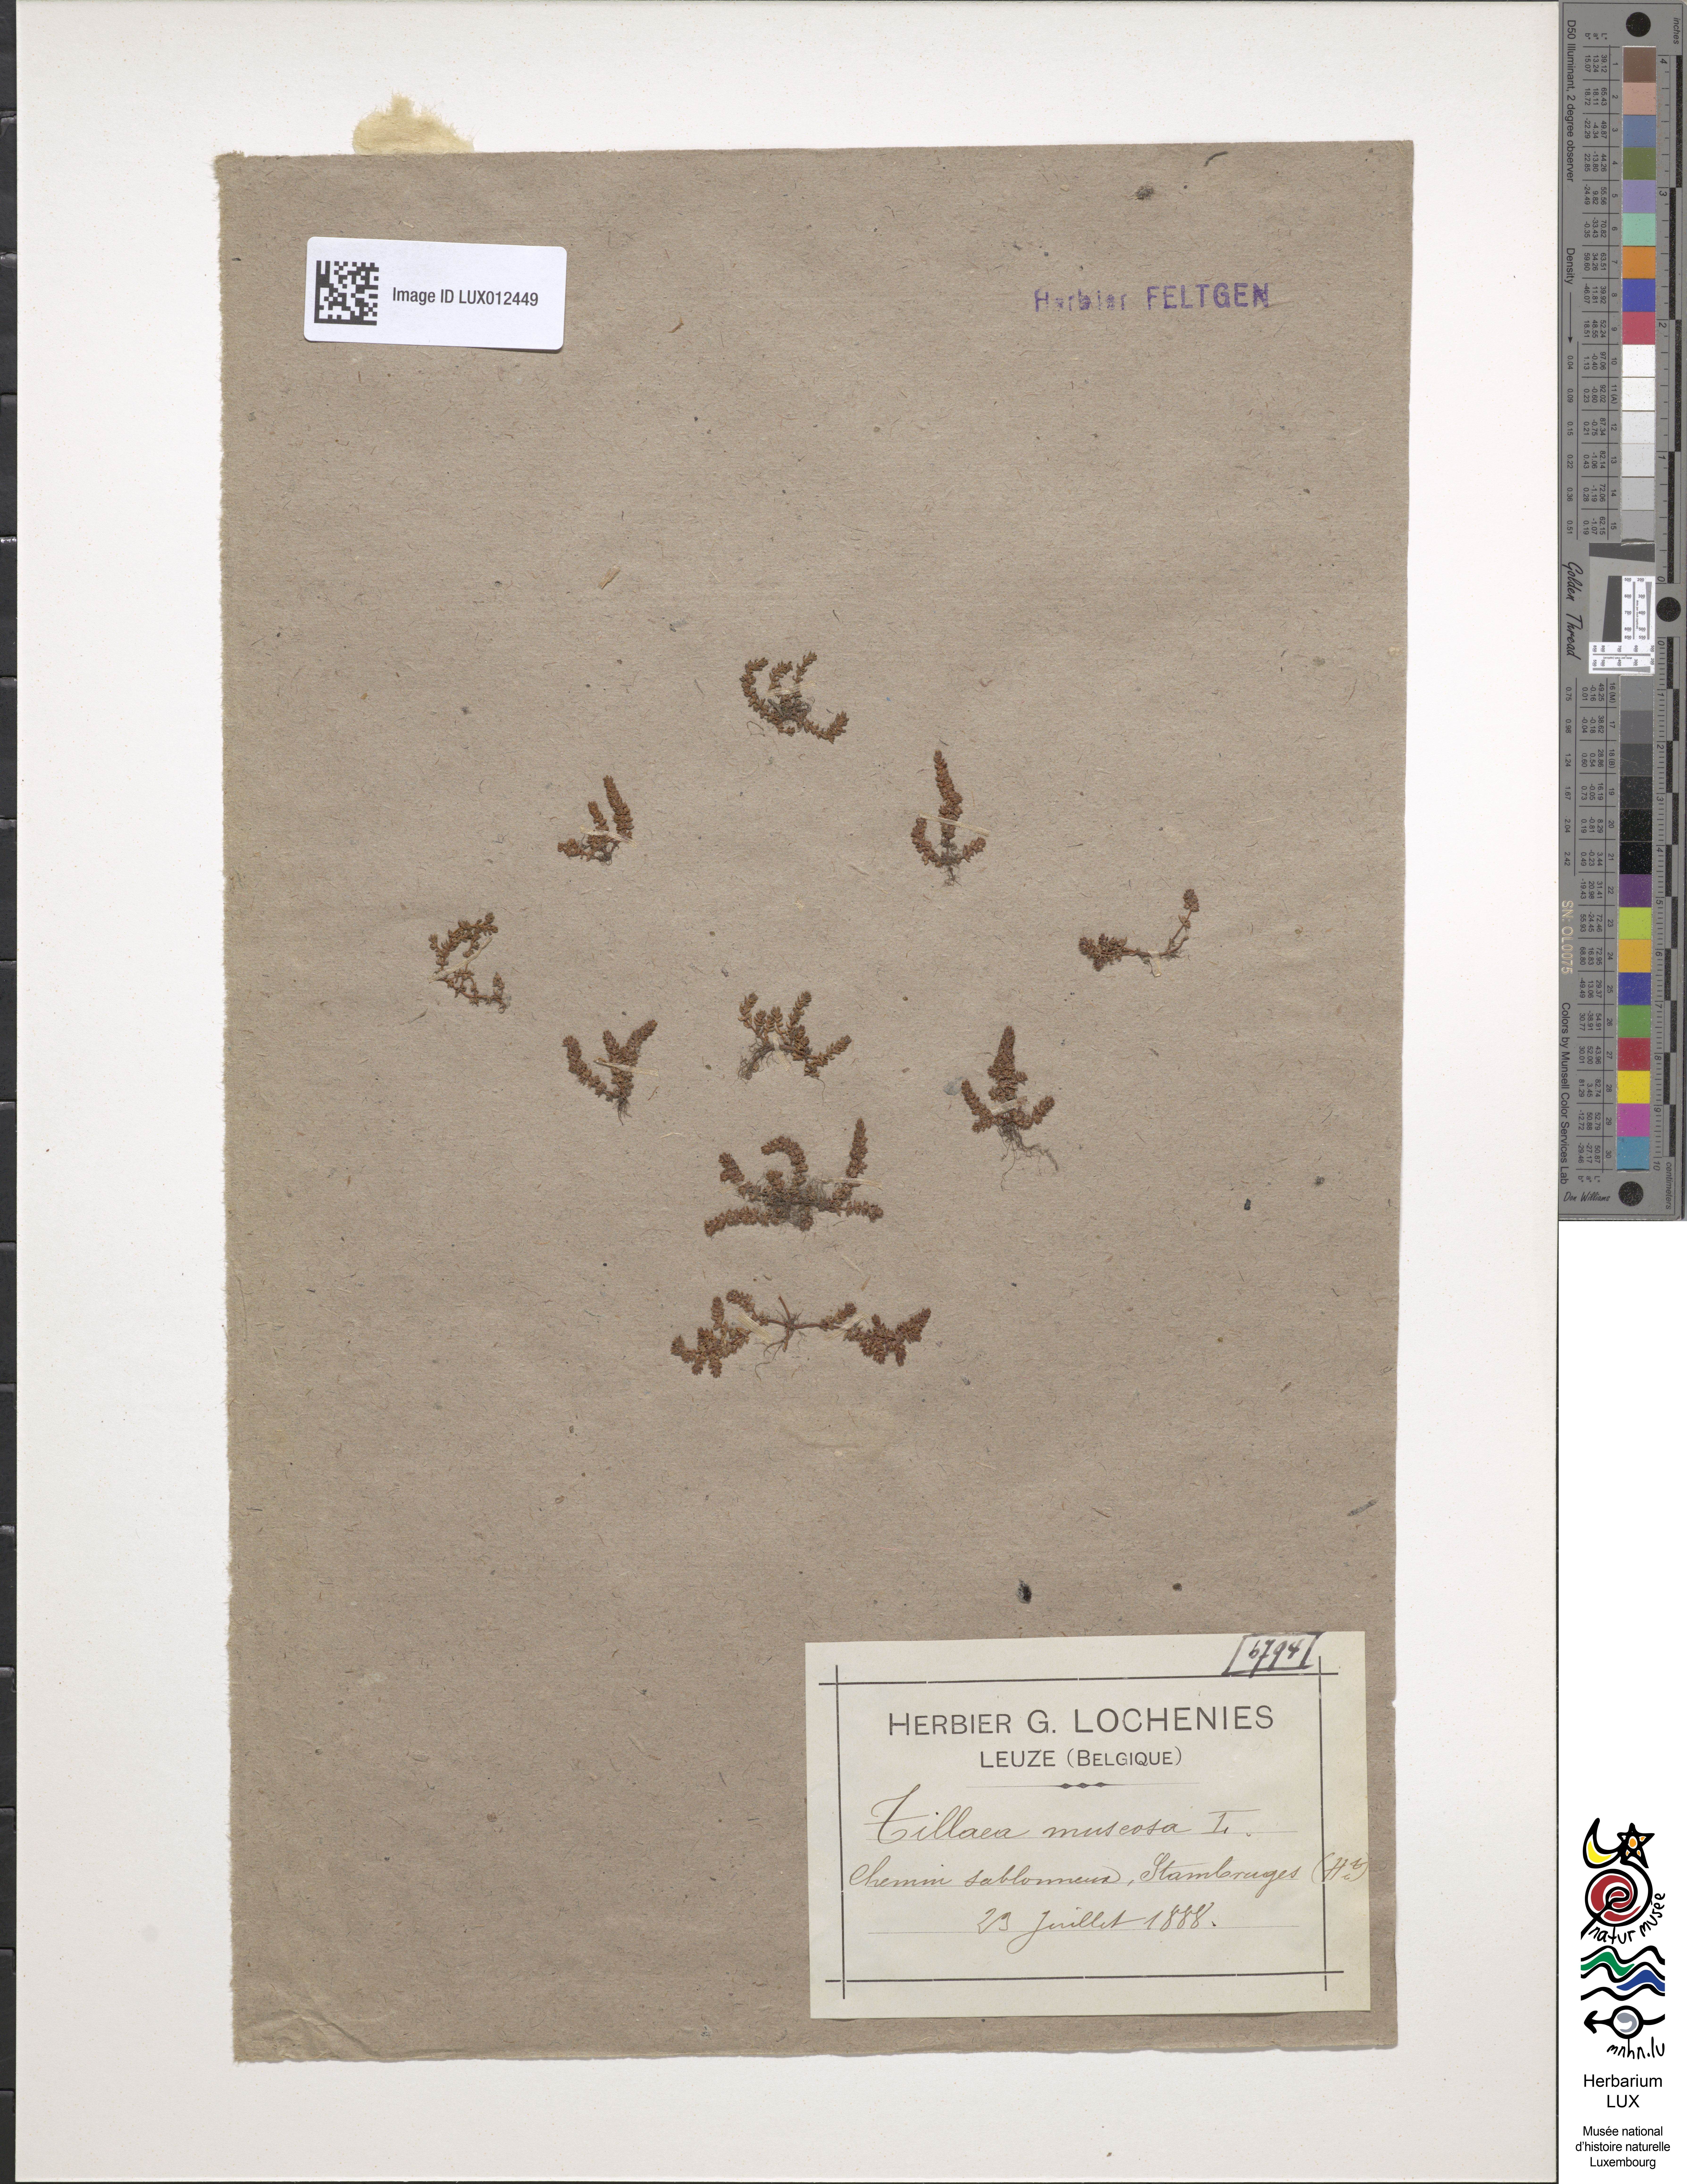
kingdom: Plantae
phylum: Tracheophyta
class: Magnoliopsida
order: Saxifragales
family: Crassulaceae
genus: Crassula
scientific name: Crassula tillaea
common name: Mossy stonecrop
